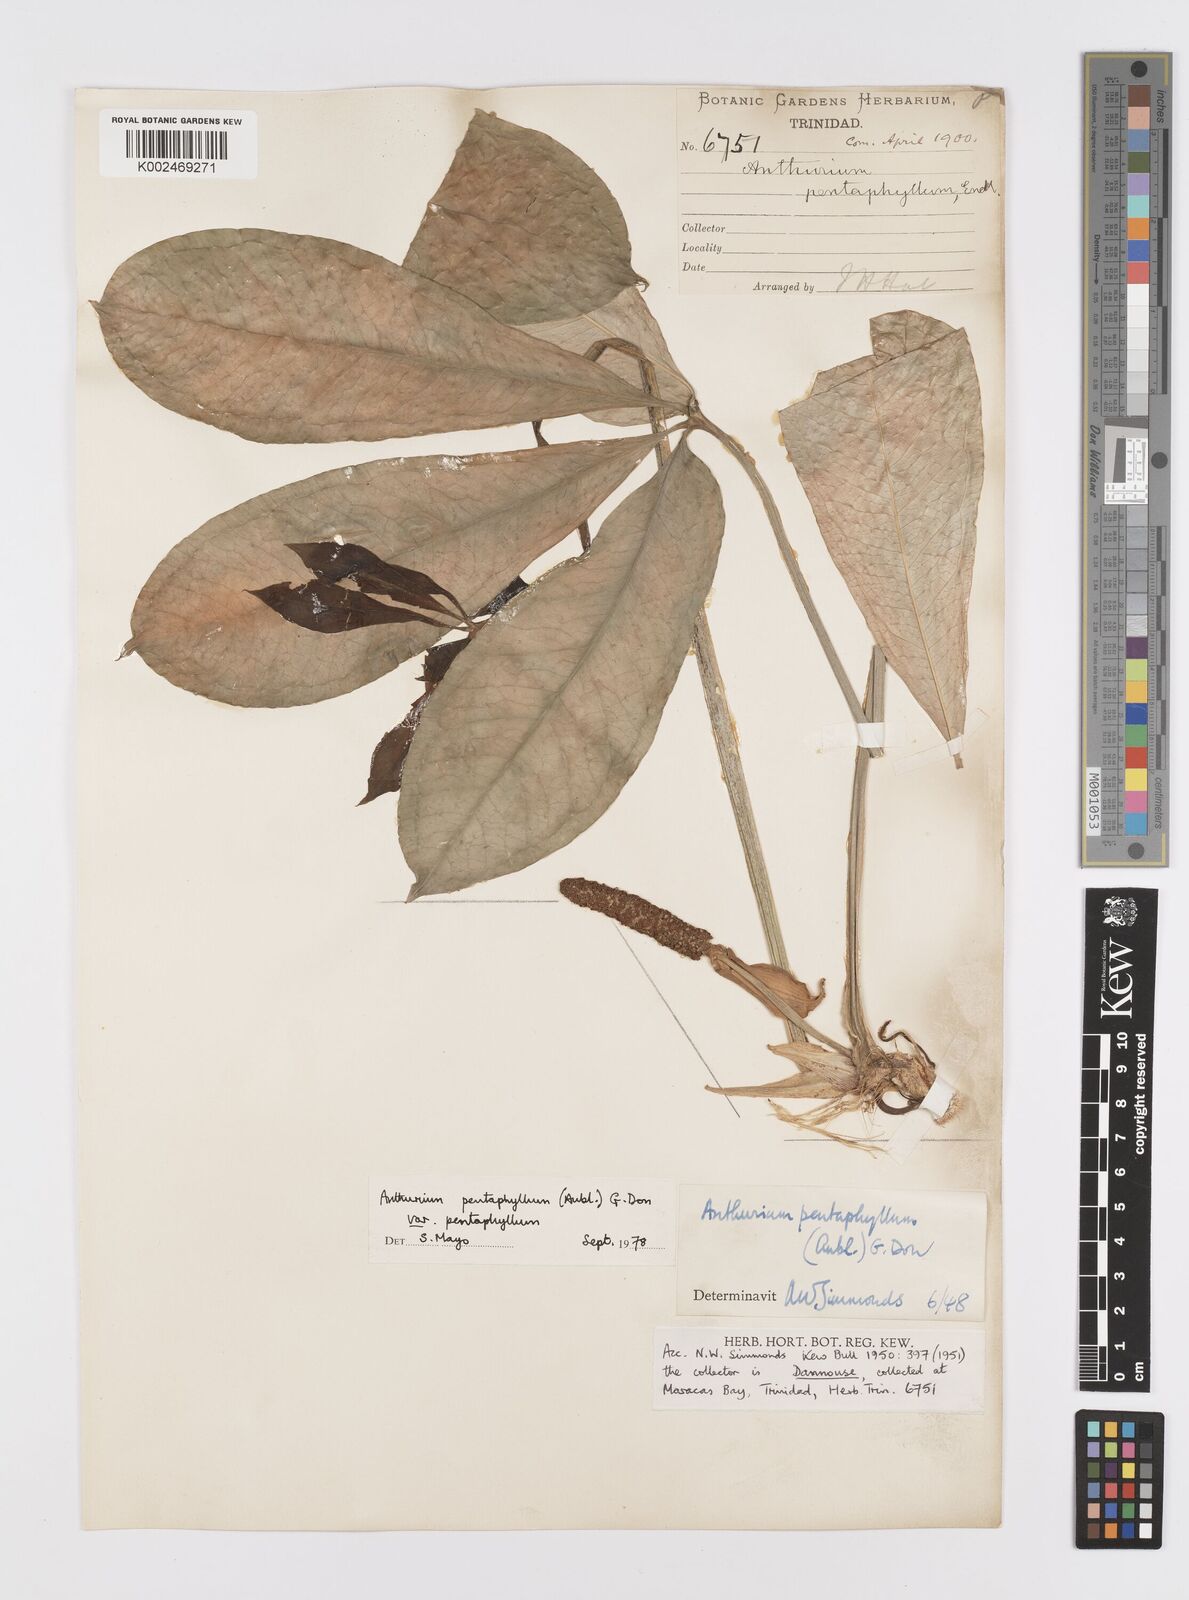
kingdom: Plantae
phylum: Tracheophyta
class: Liliopsida
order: Alismatales
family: Araceae
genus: Anthurium
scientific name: Anthurium pentaphyllum
